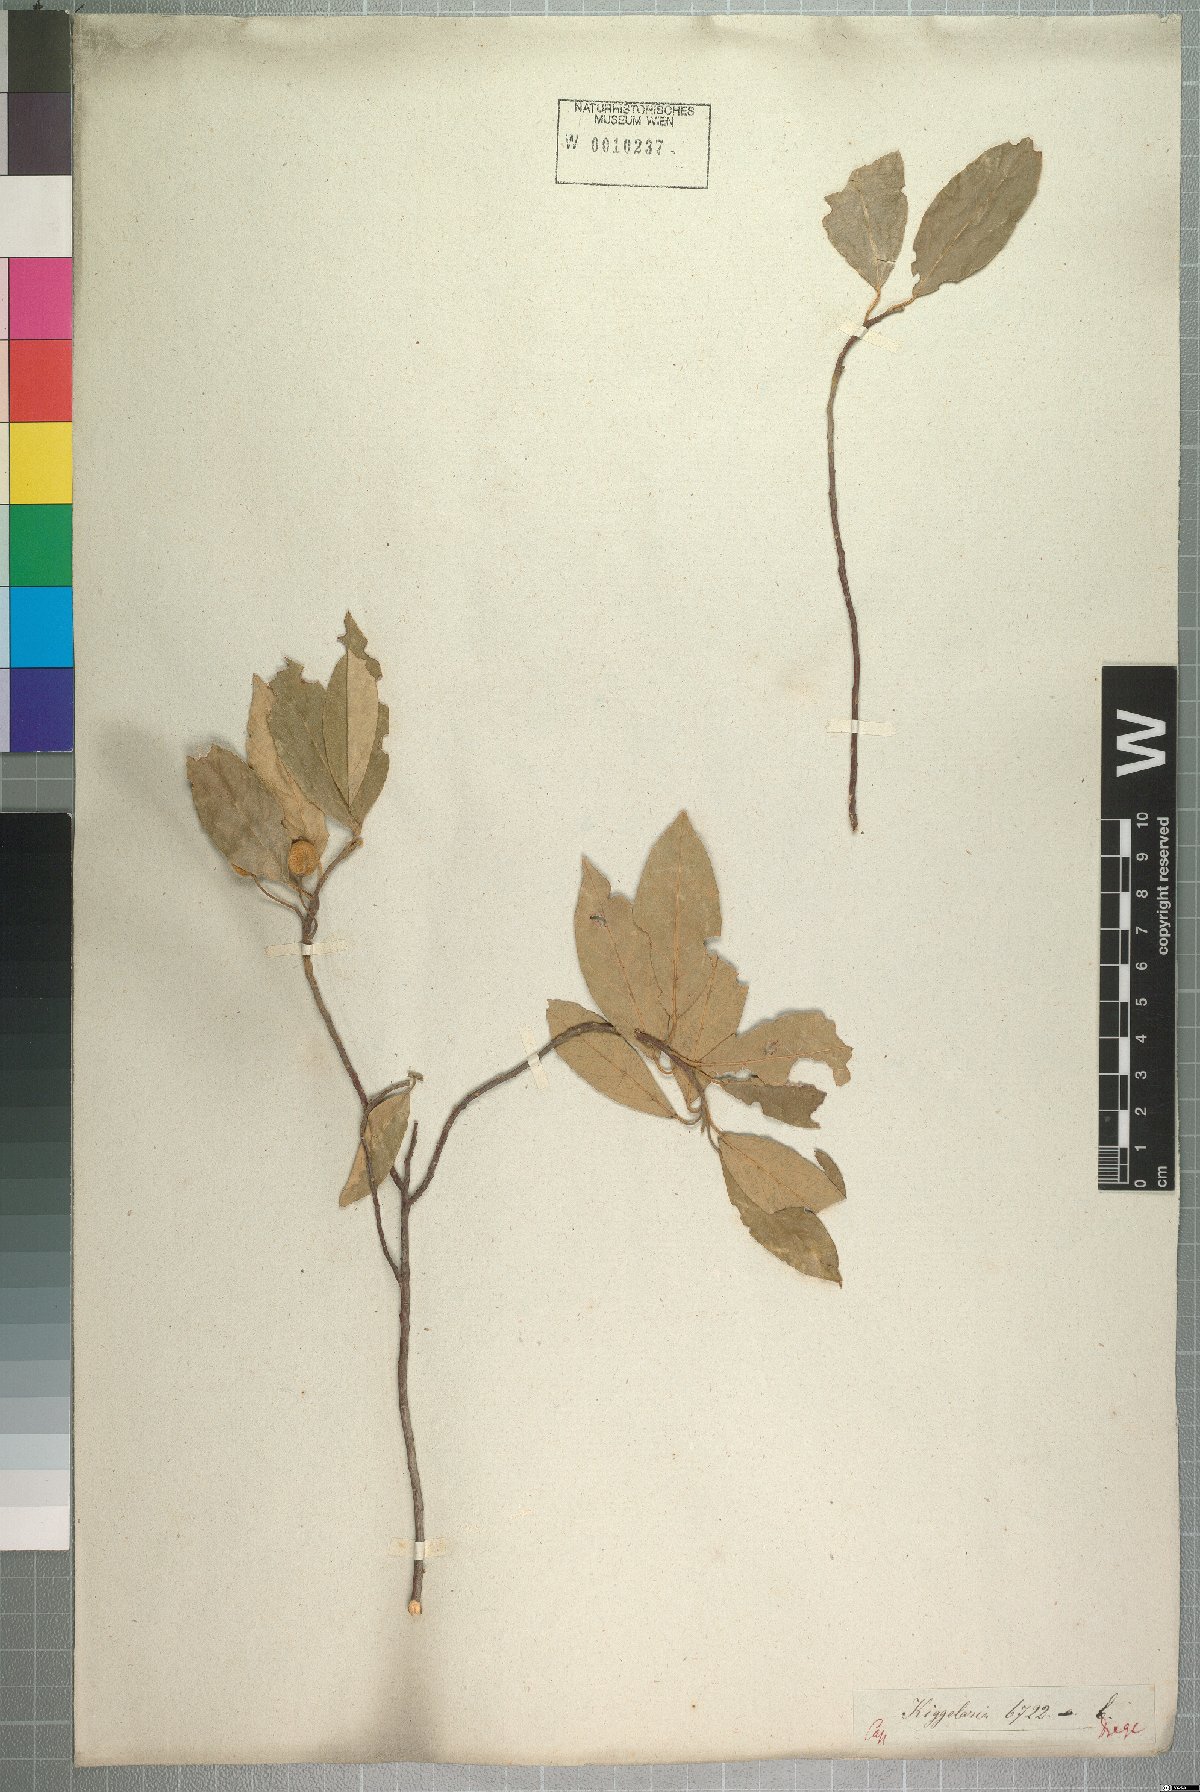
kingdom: Plantae
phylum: Tracheophyta
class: Magnoliopsida
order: Malpighiales
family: Achariaceae
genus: Kiggelaria
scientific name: Kiggelaria africana
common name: Wild peach
